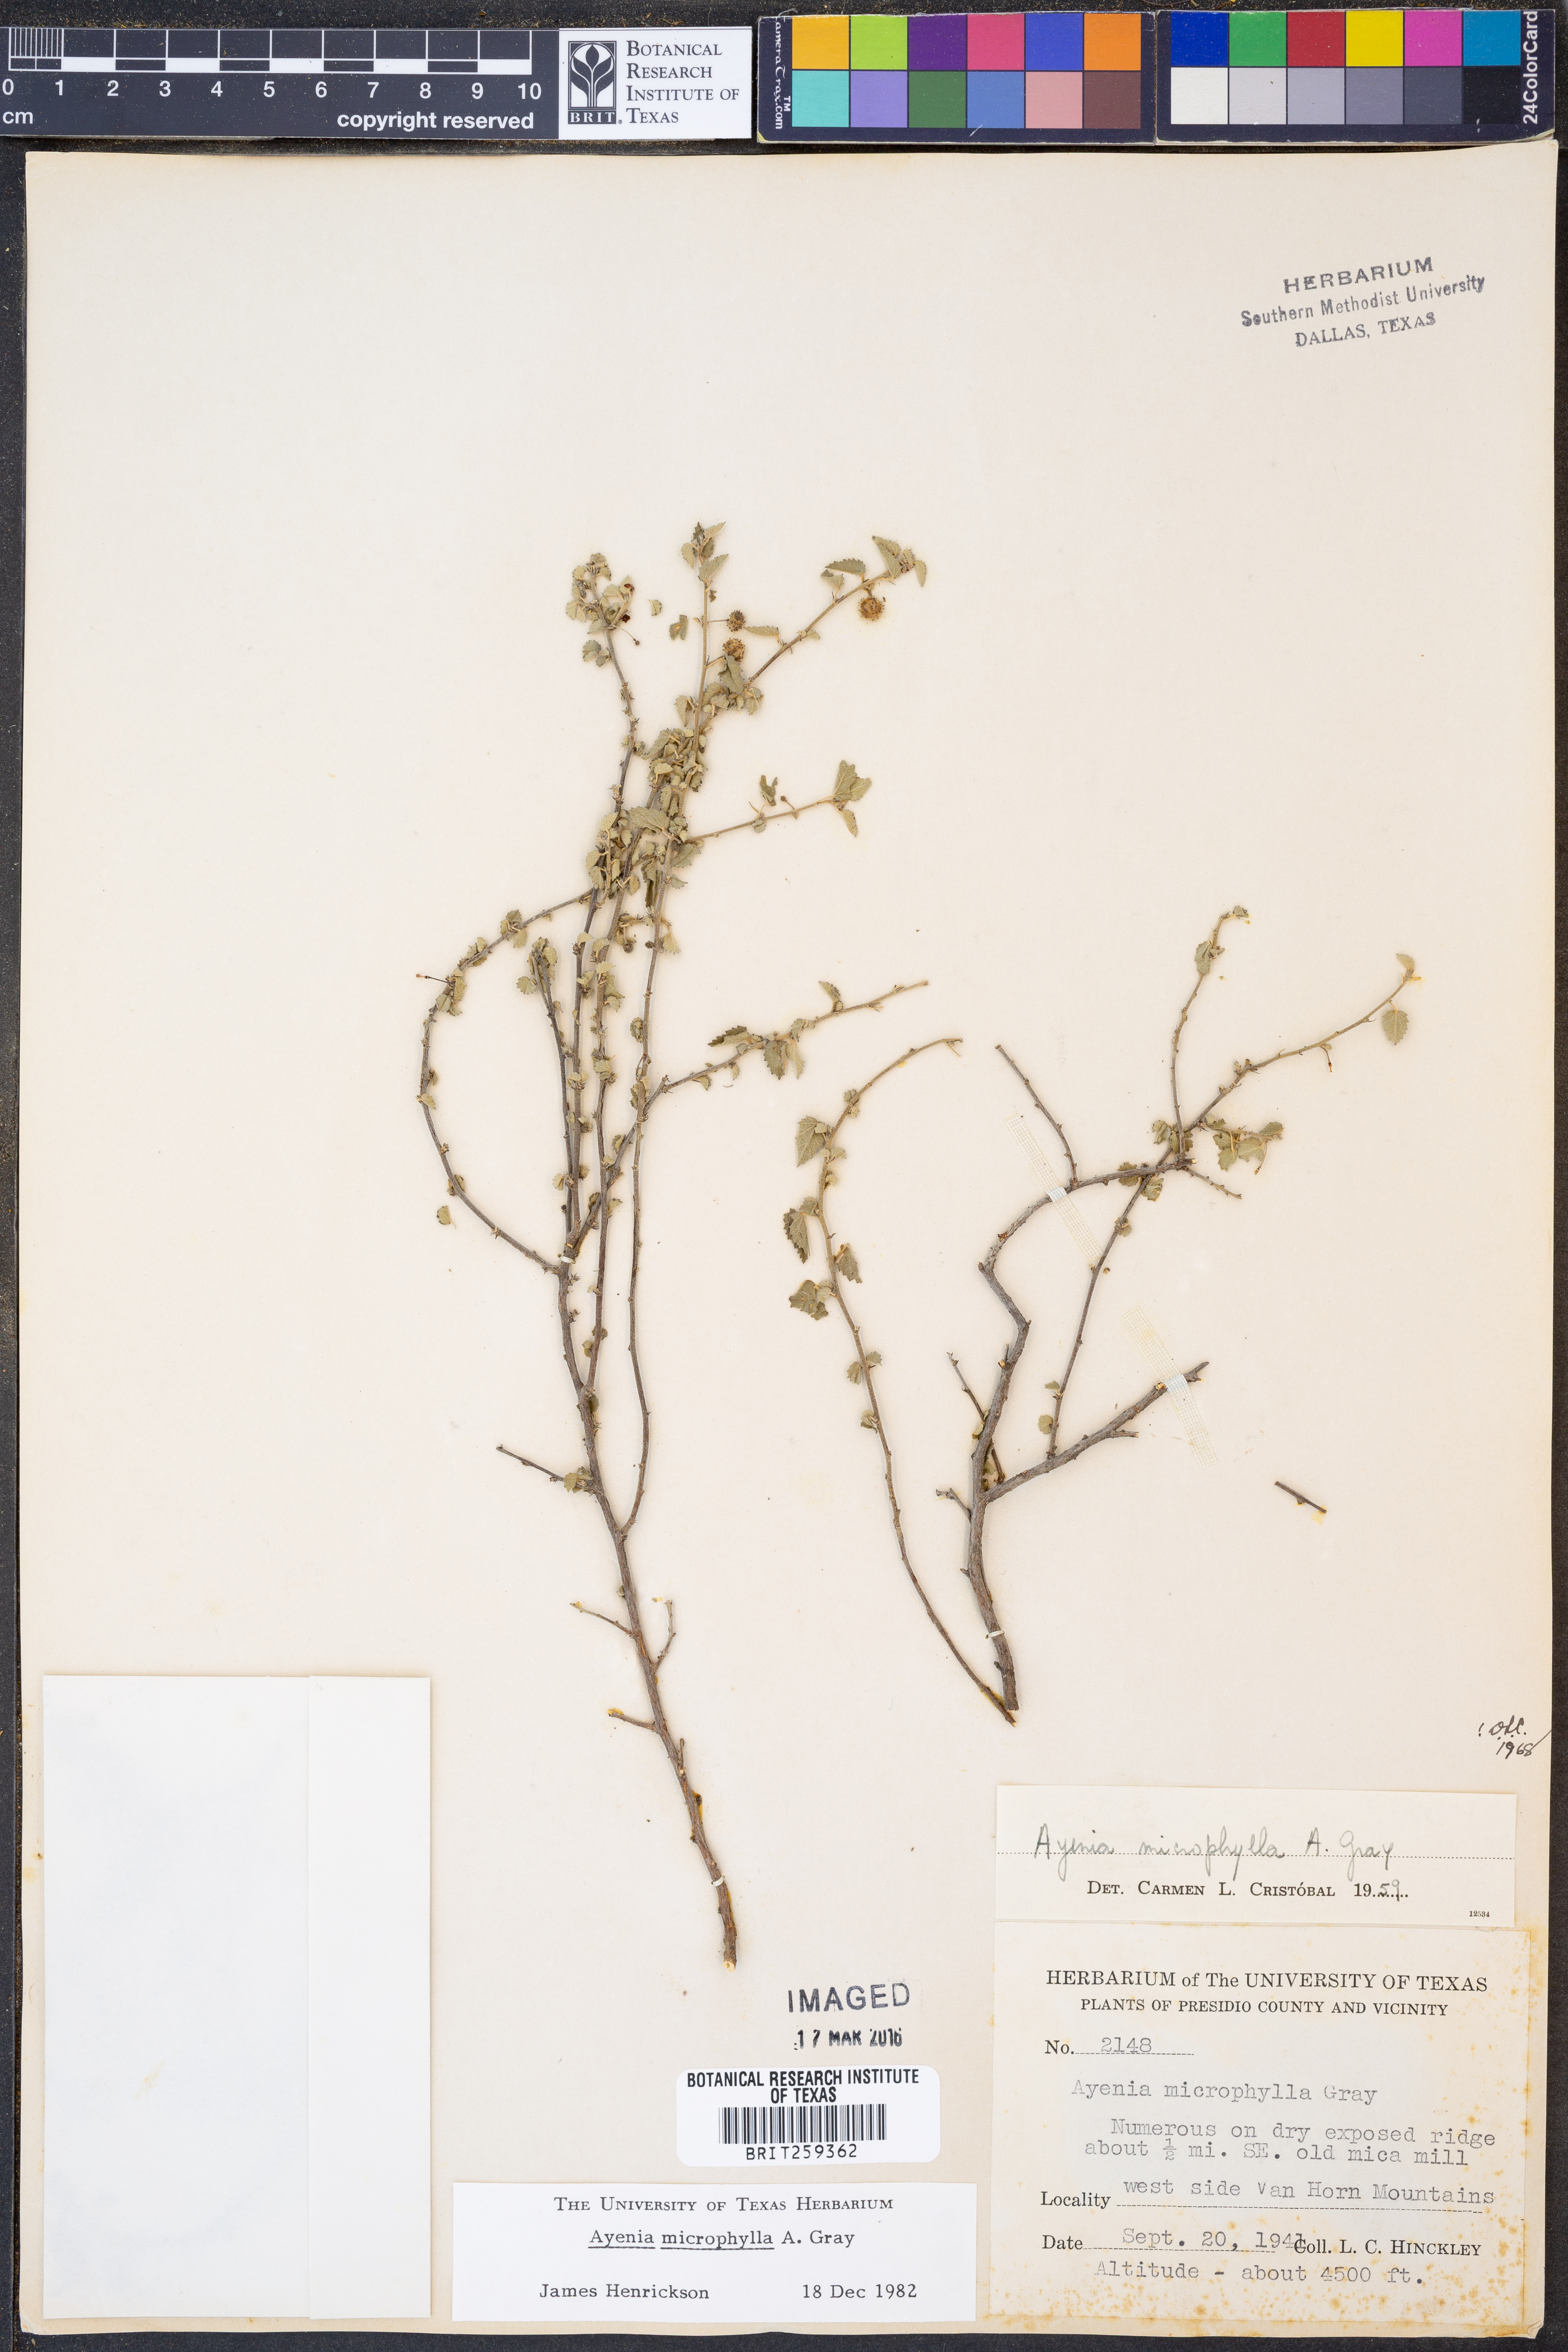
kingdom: Plantae
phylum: Tracheophyta
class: Magnoliopsida
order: Malvales
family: Malvaceae
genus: Ayenia
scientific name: Ayenia microphylla
